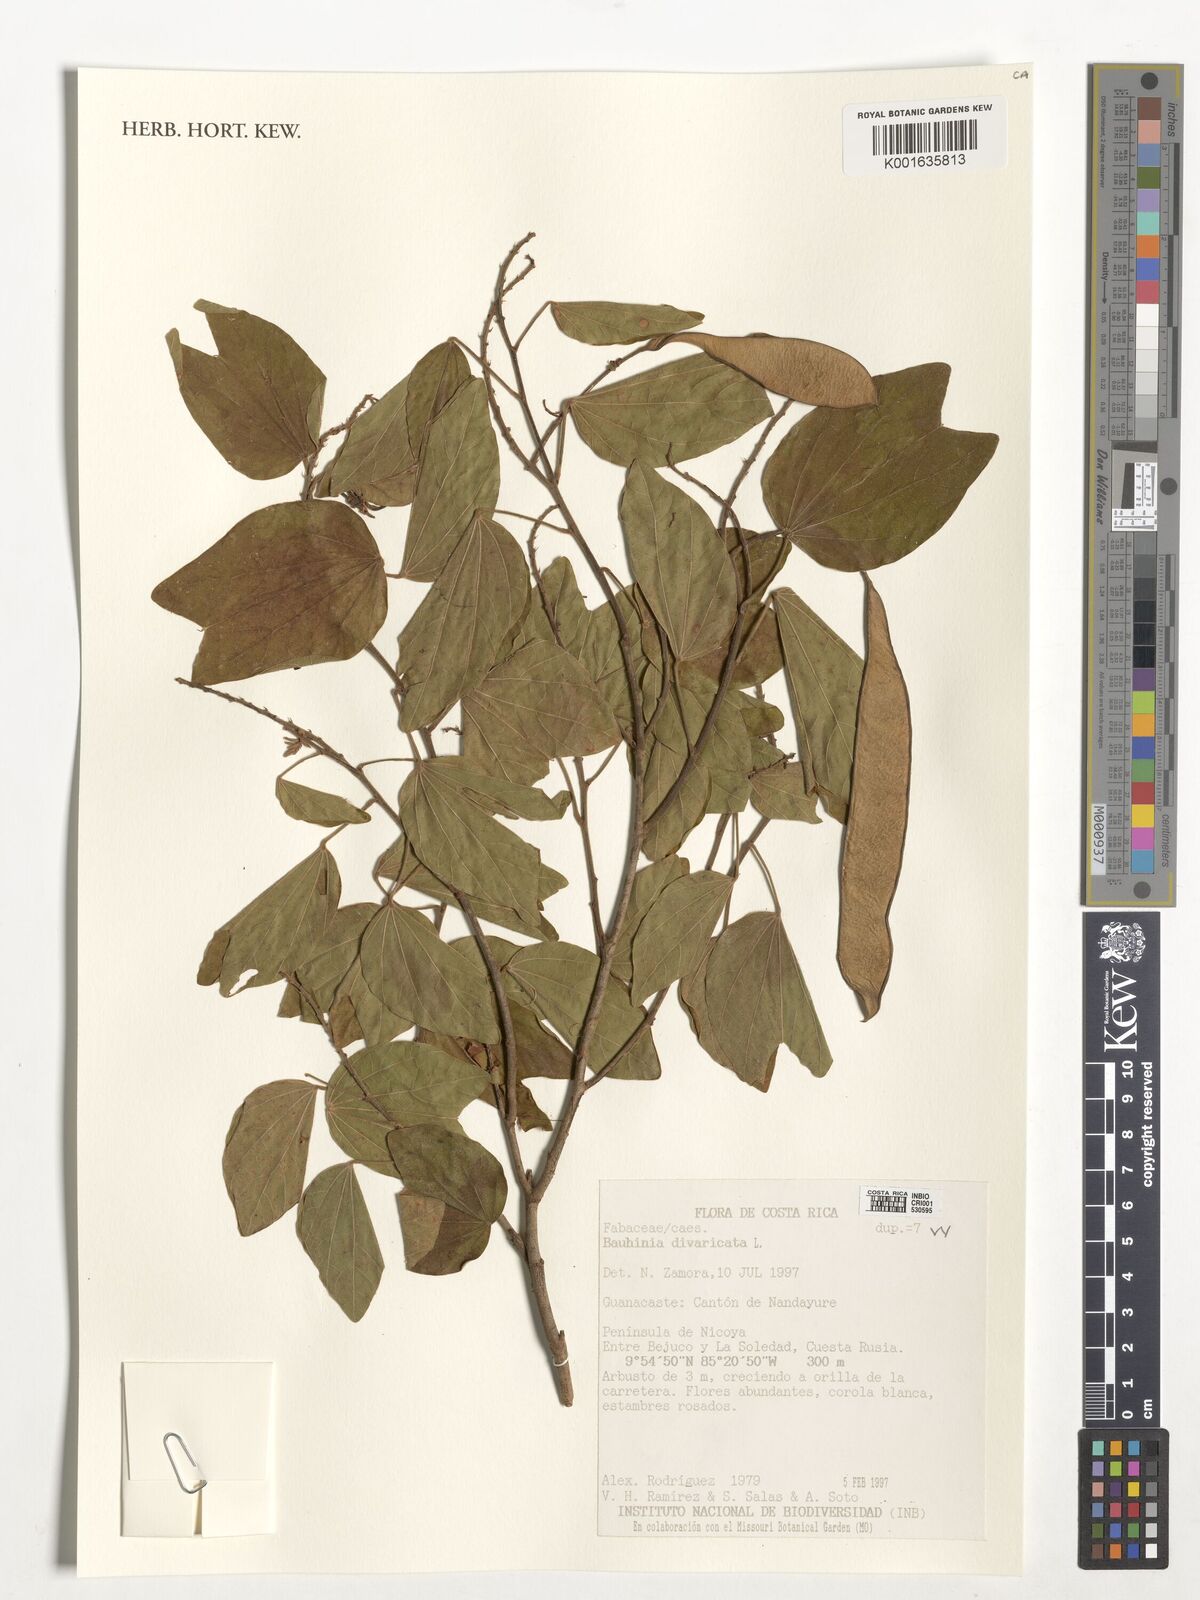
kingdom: Plantae
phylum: Tracheophyta
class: Magnoliopsida
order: Fabales
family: Fabaceae
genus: Bauhinia
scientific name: Bauhinia divaricata
